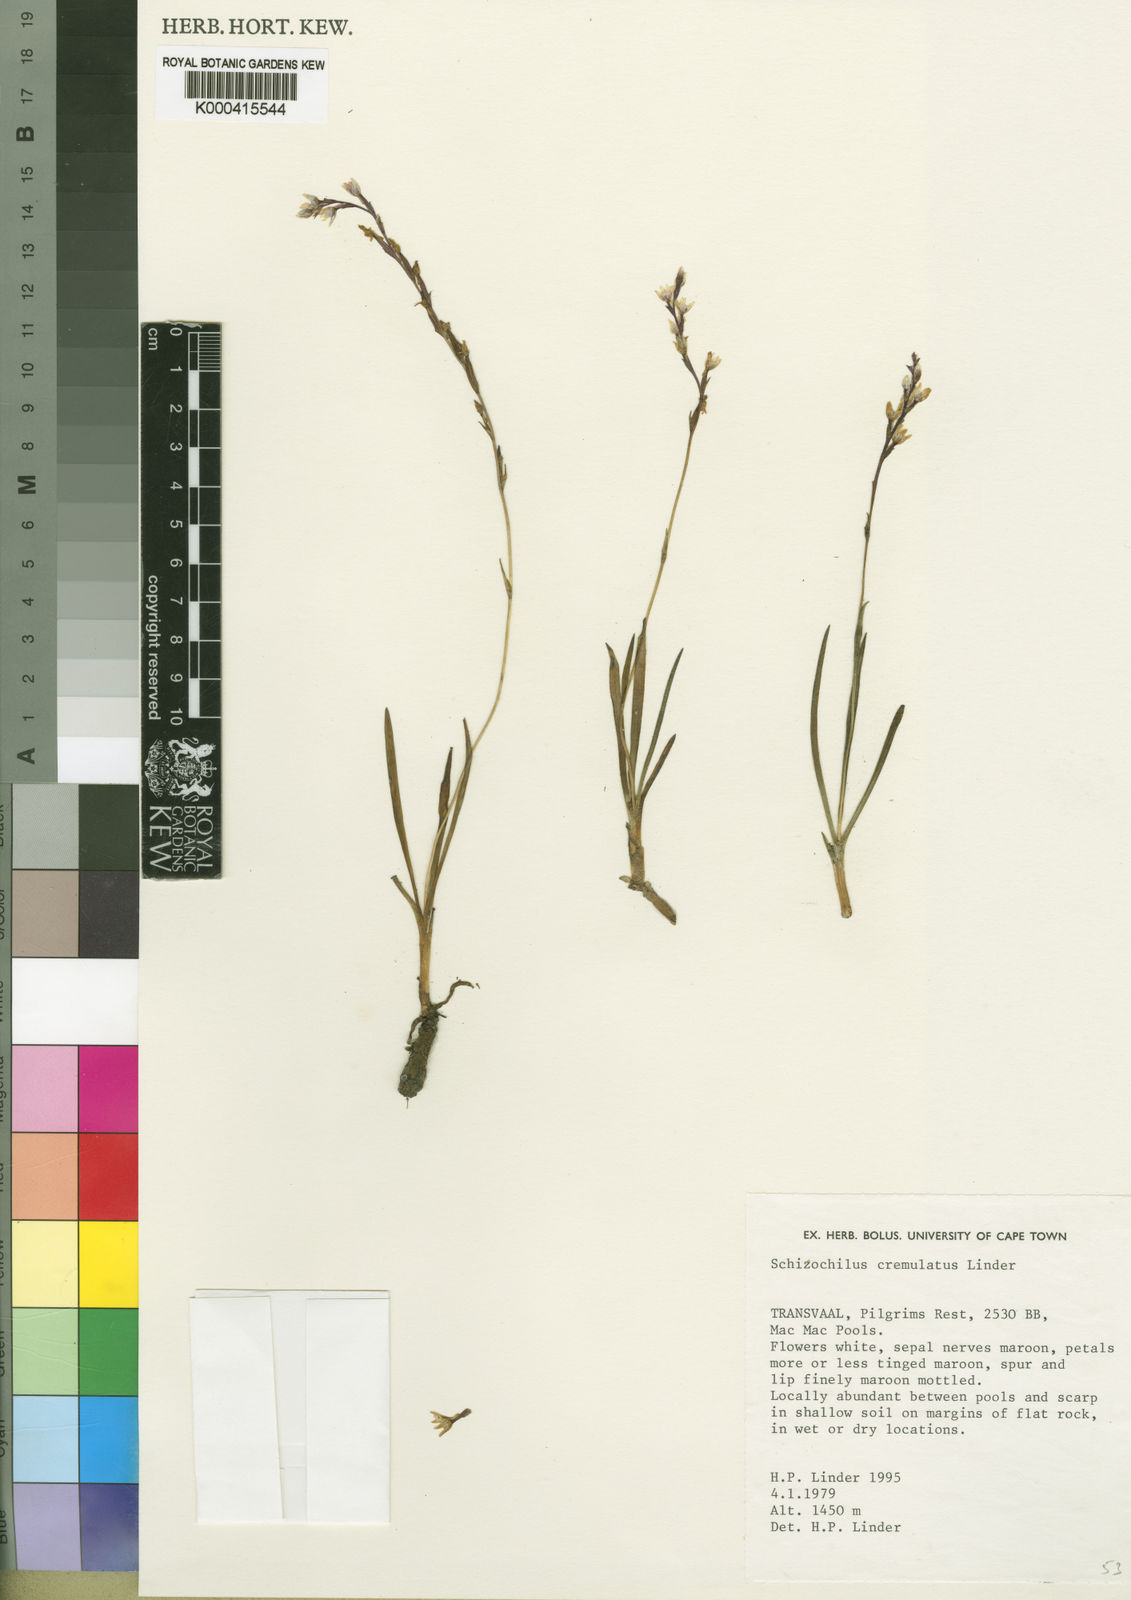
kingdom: Plantae
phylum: Tracheophyta
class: Liliopsida
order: Asparagales
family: Orchidaceae
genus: Schizochilus
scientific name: Schizochilus crenulatus
